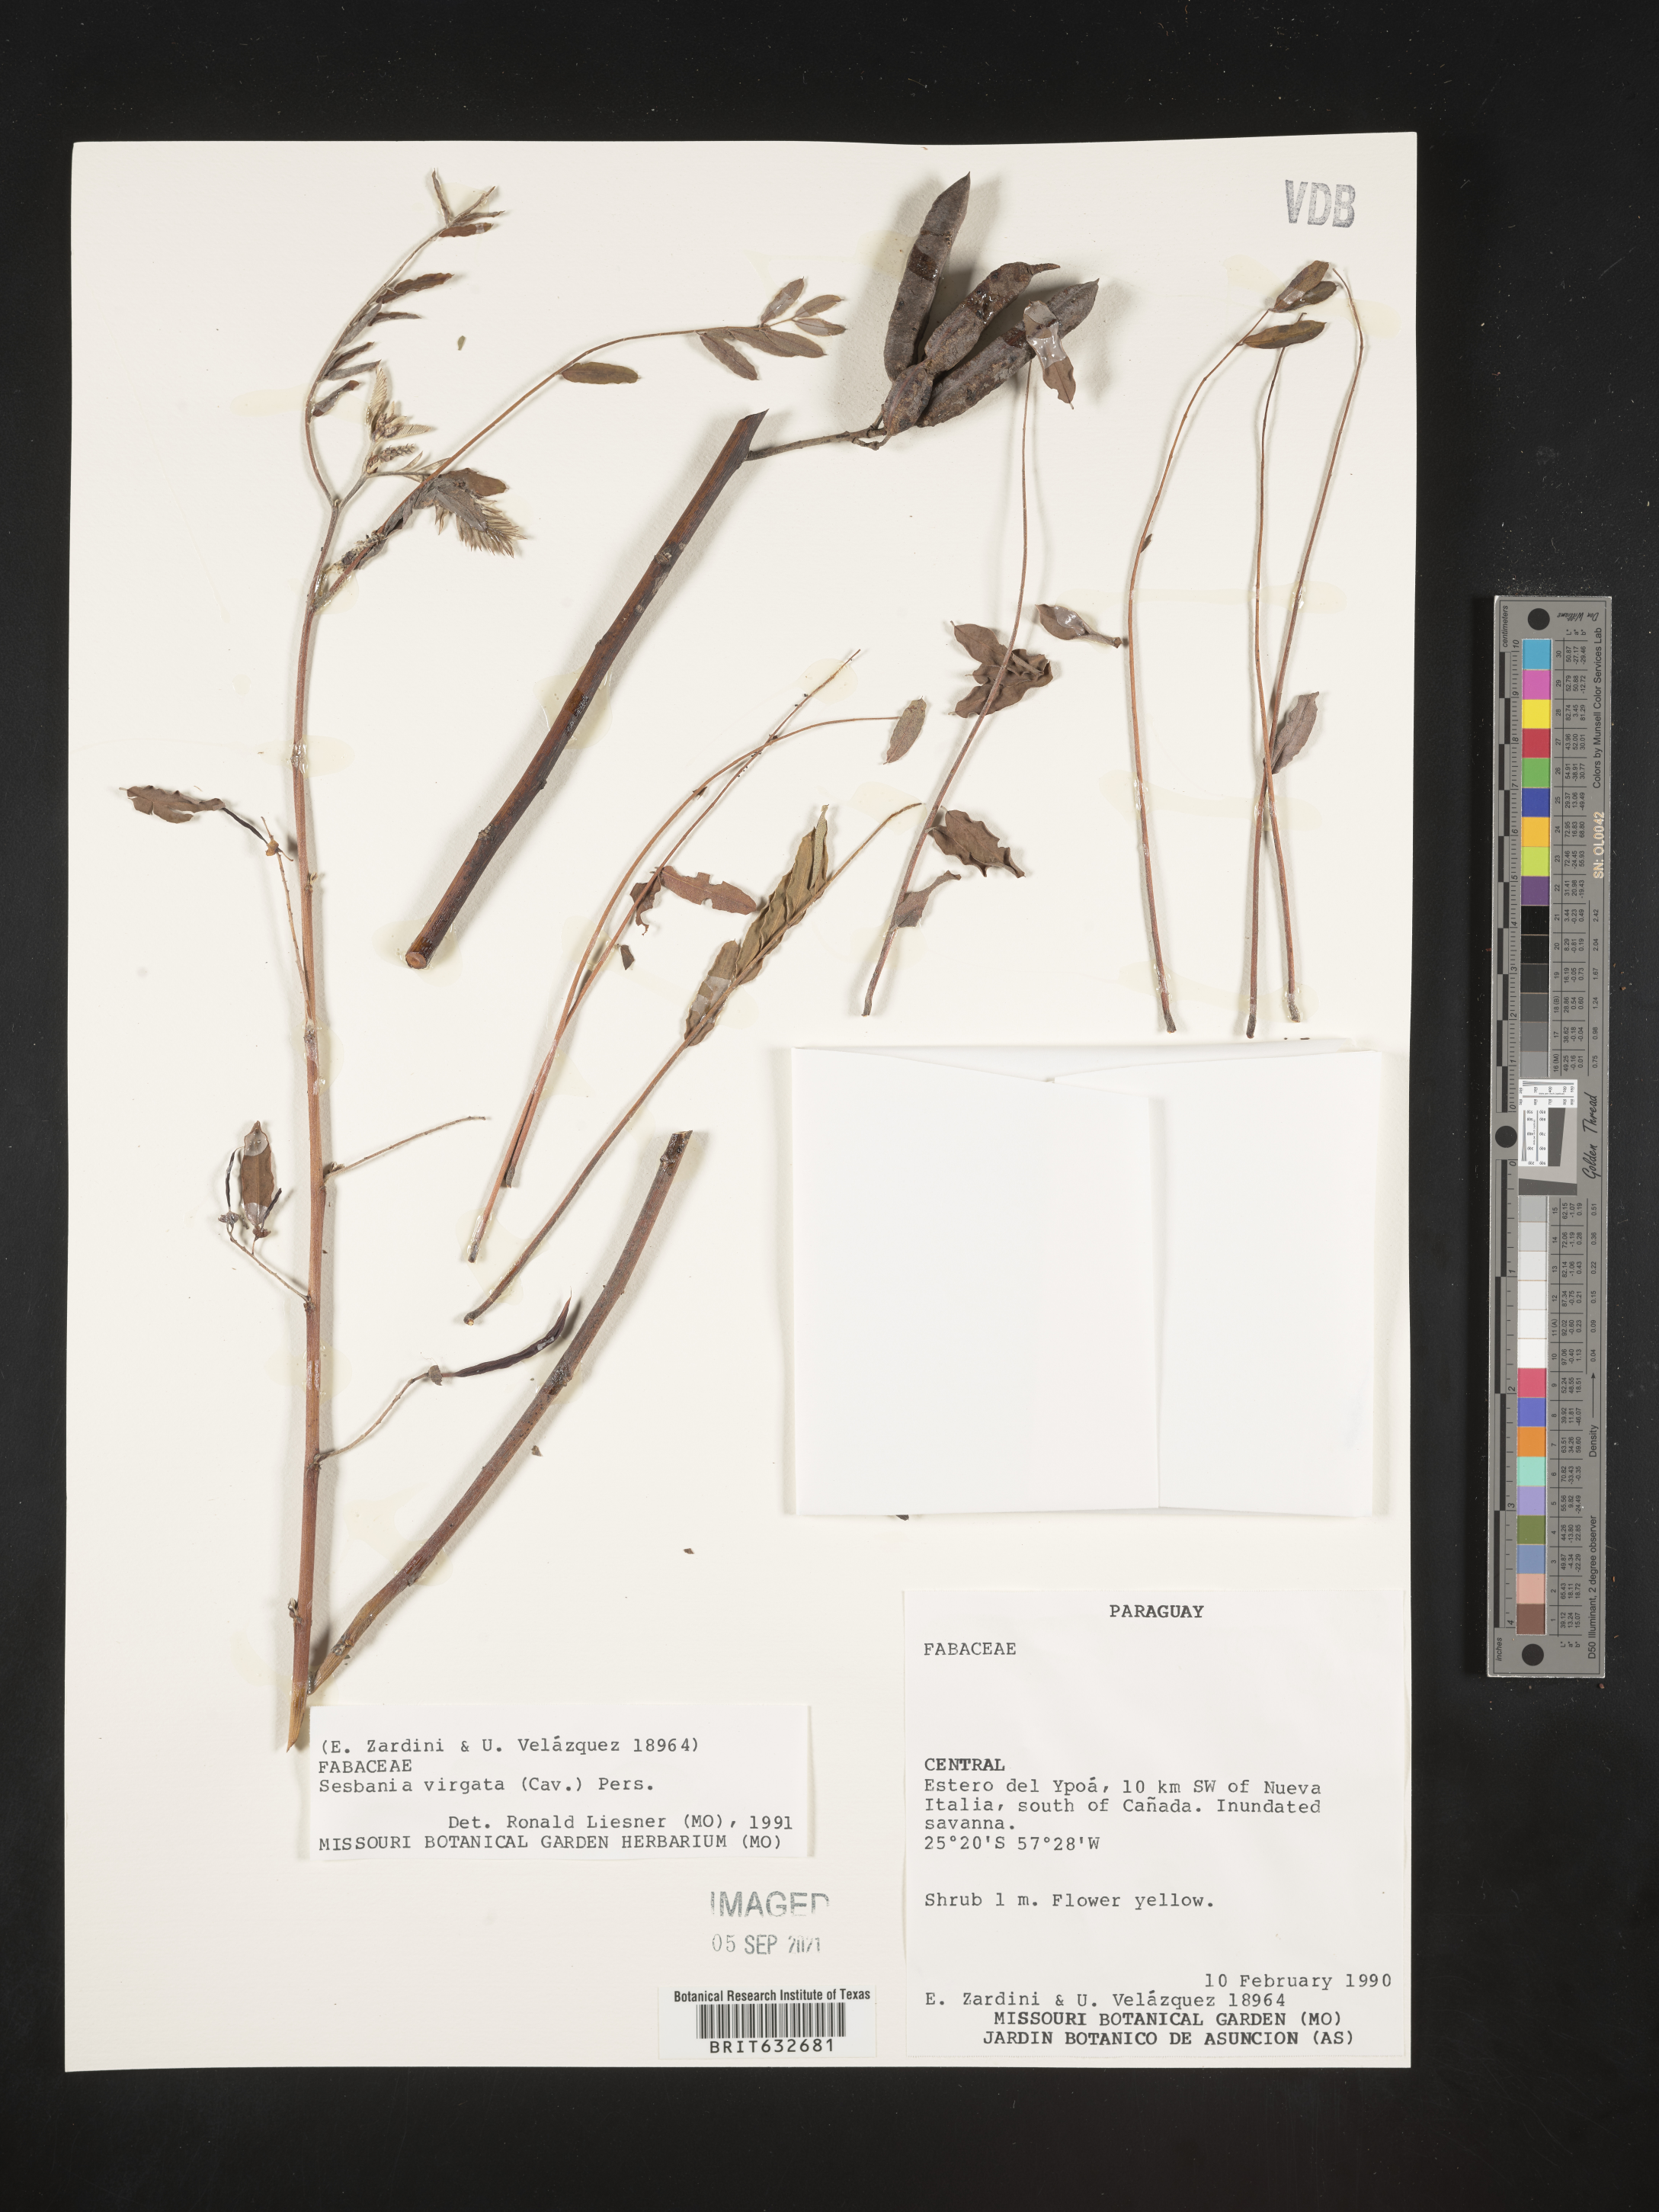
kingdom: Plantae
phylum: Tracheophyta
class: Magnoliopsida
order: Fabales
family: Fabaceae
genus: Sesbania
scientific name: Sesbania
